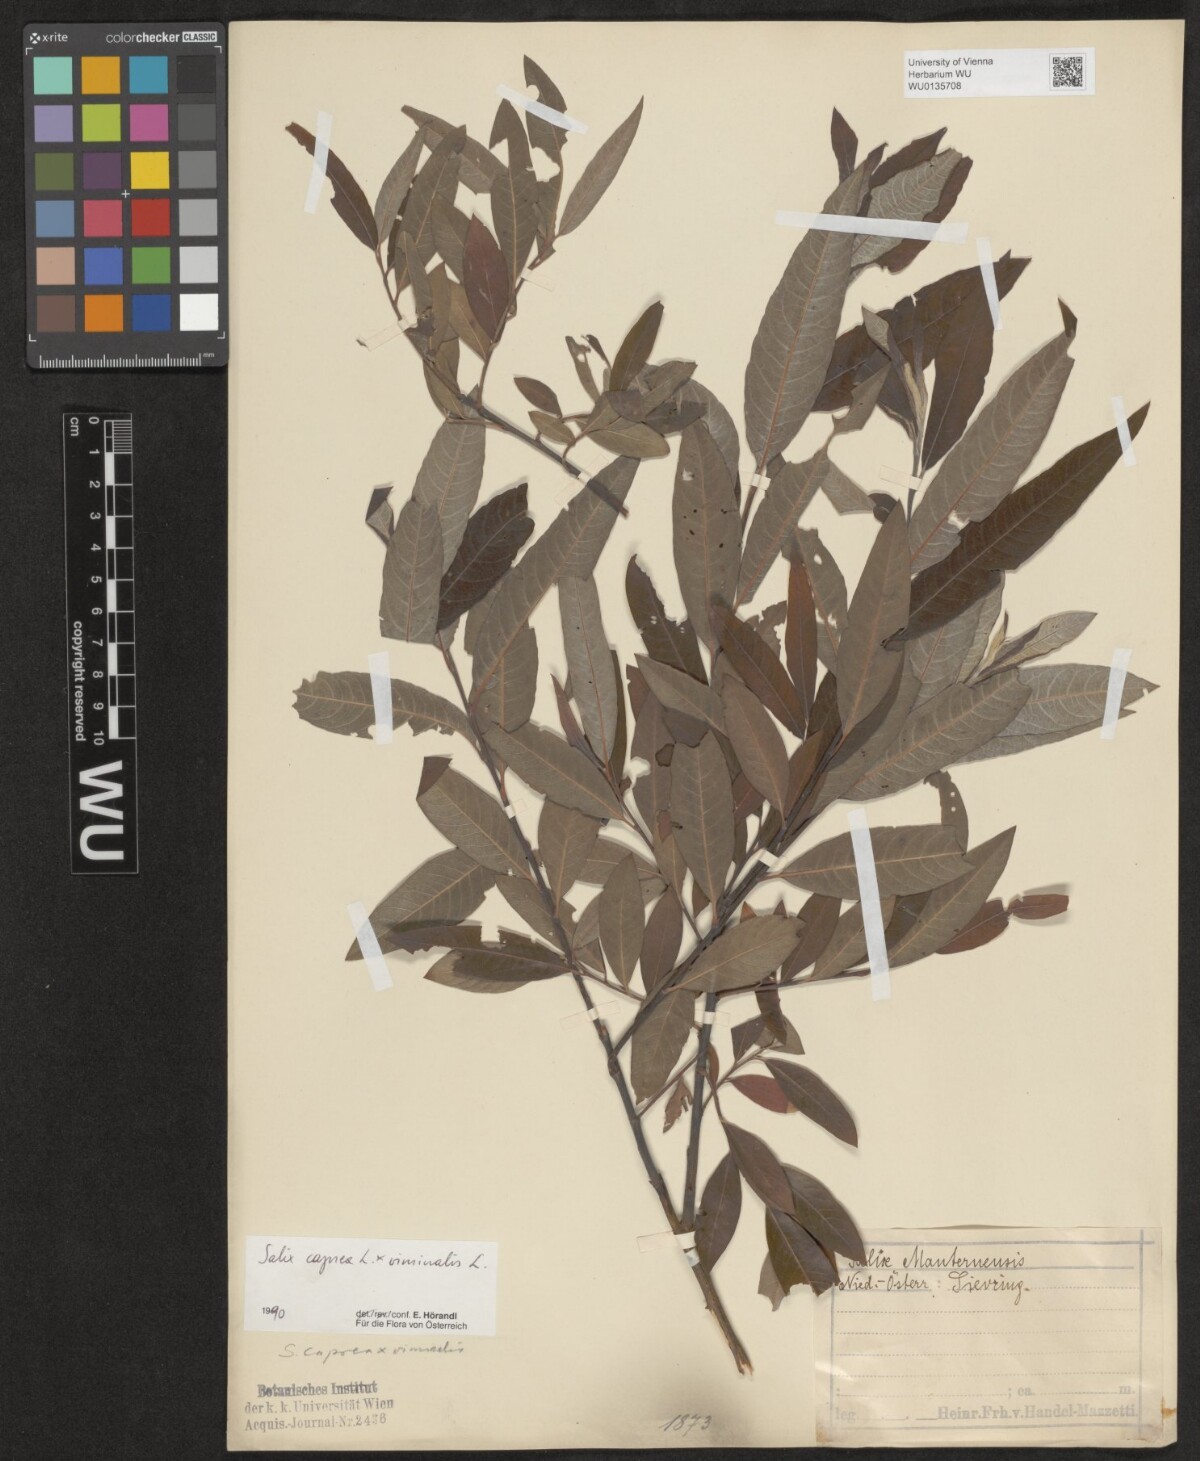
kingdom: Plantae
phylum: Tracheophyta
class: Magnoliopsida
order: Malpighiales
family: Salicaceae
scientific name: Salicaceae
